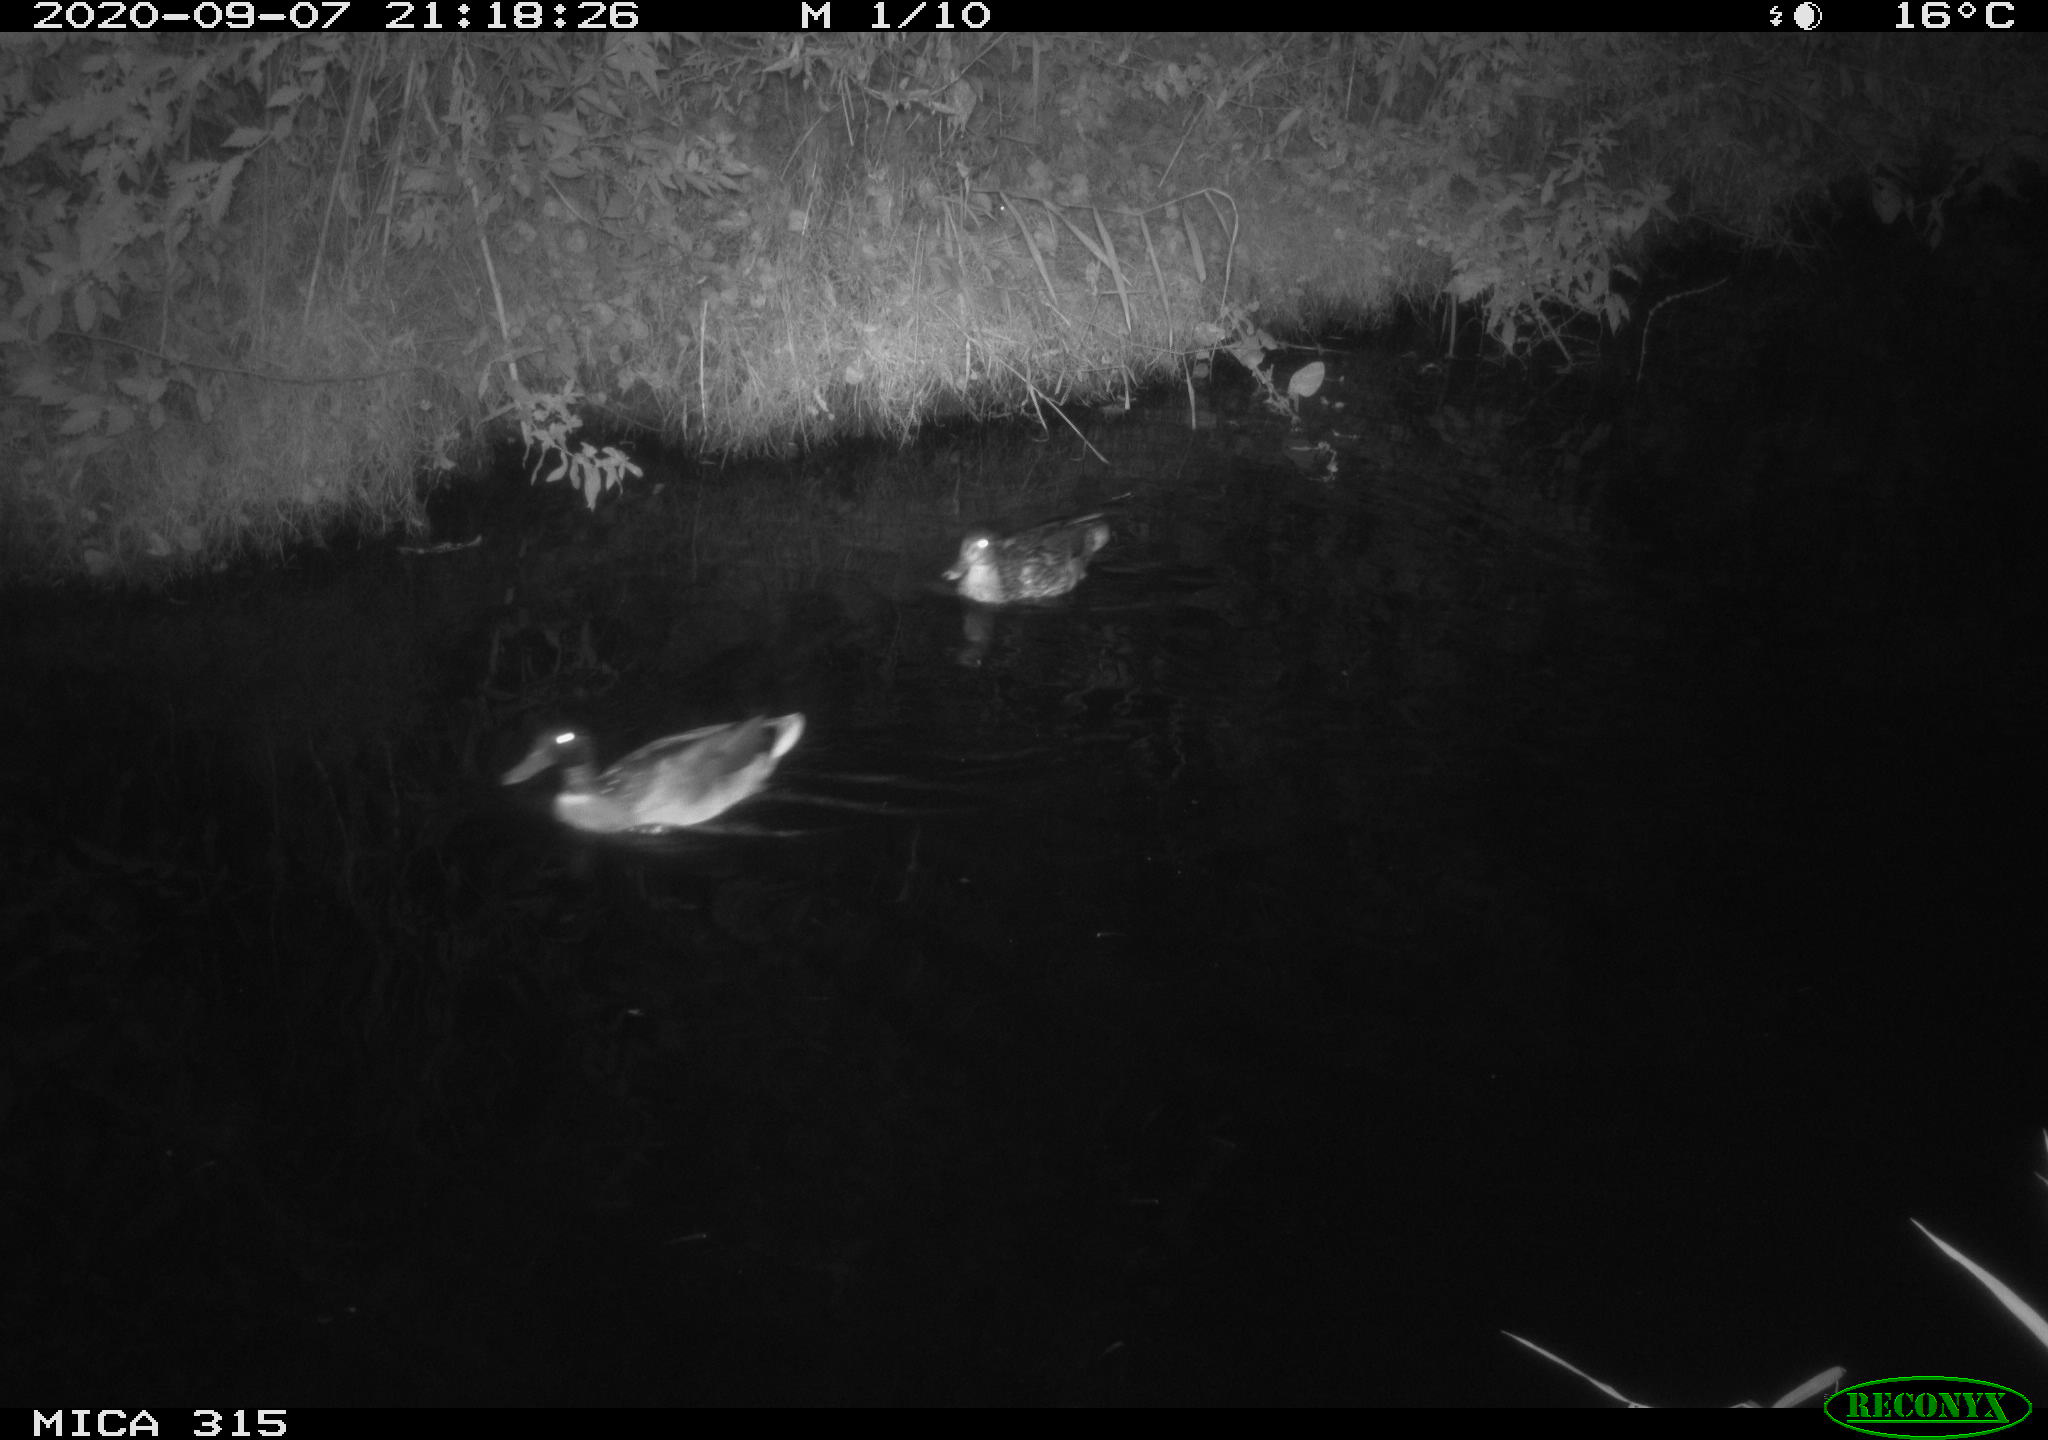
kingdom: Animalia
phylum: Chordata
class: Aves
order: Anseriformes
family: Anatidae
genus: Anas
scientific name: Anas platyrhynchos
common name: Mallard
